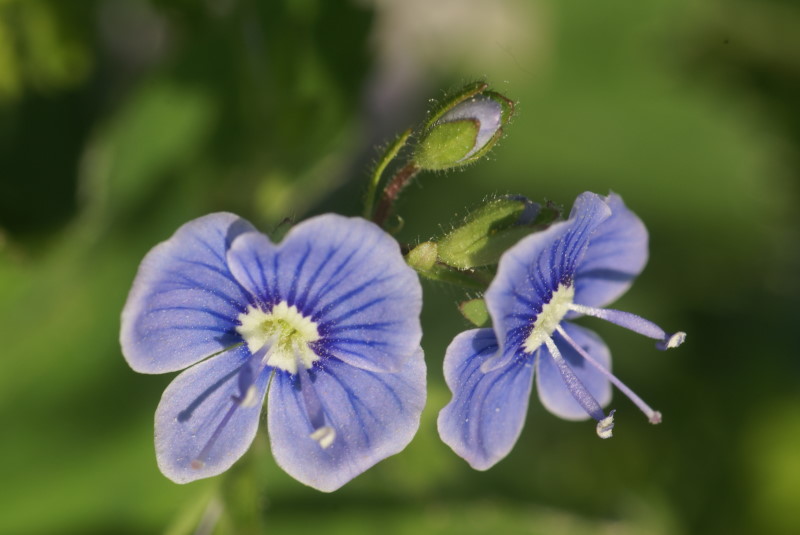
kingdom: Plantae
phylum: Tracheophyta
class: Magnoliopsida
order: Lamiales
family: Plantaginaceae
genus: Veronica
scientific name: Veronica chamaedrys
